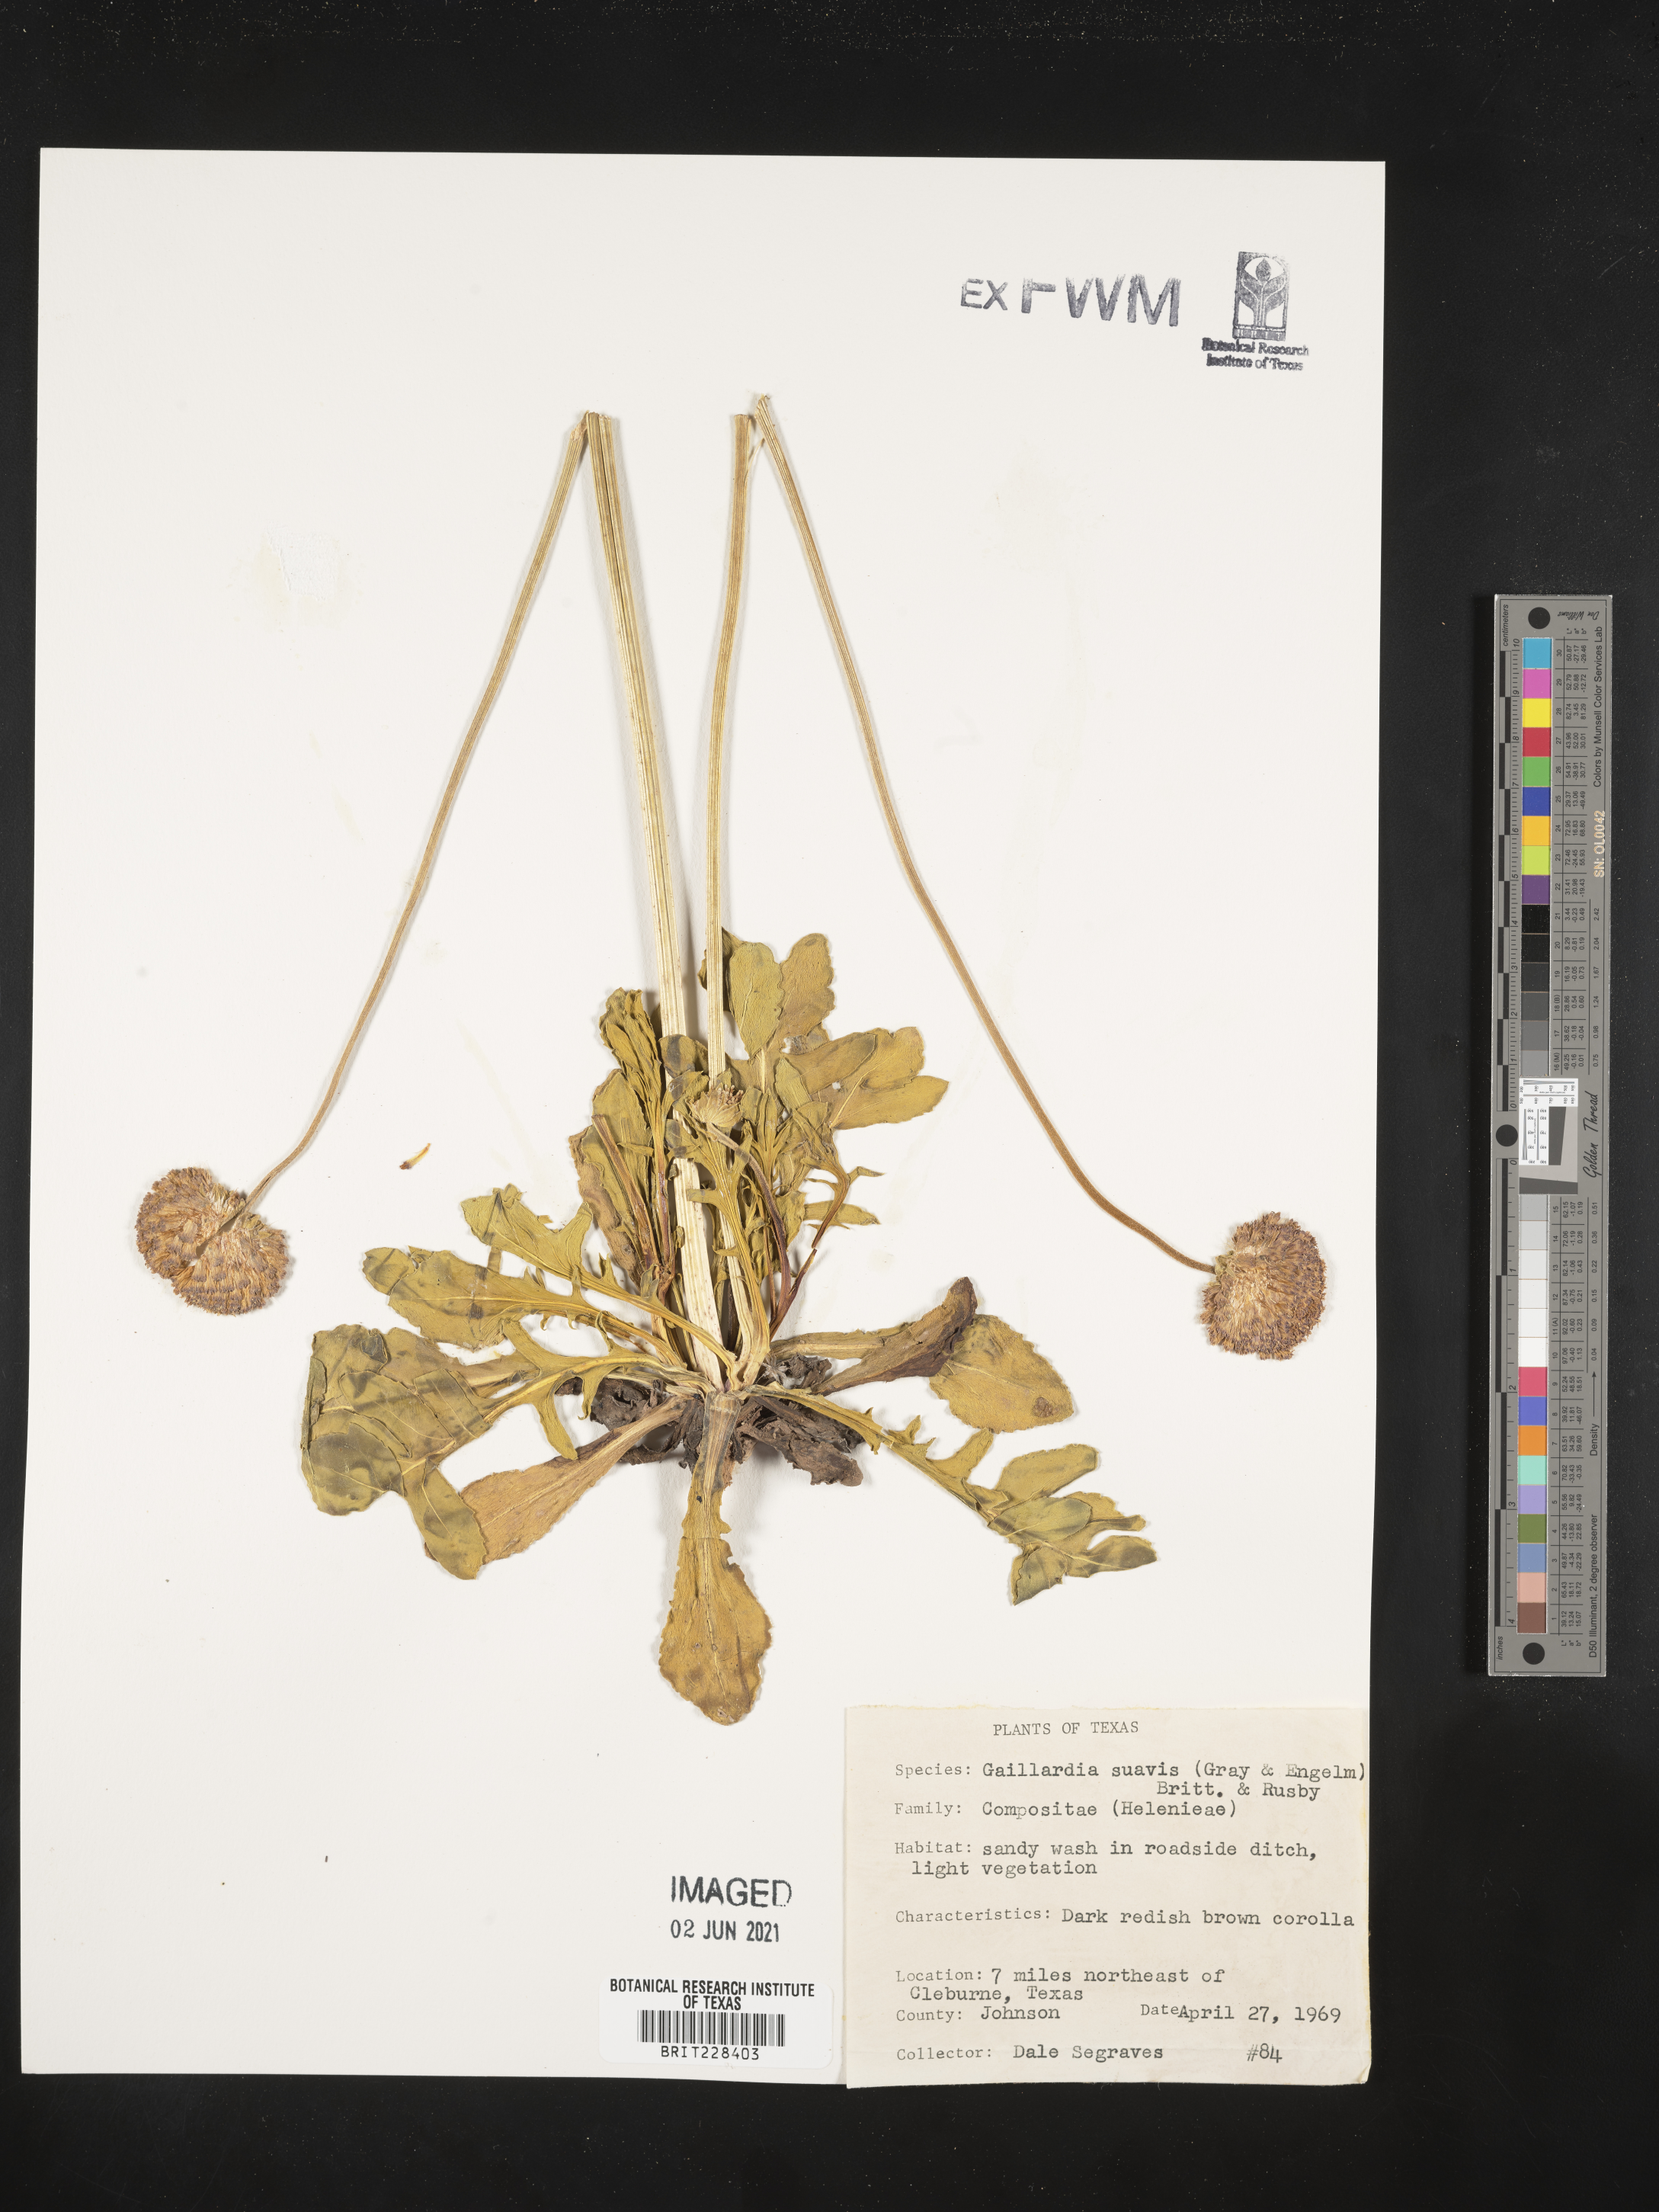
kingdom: Plantae
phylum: Tracheophyta
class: Magnoliopsida
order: Asterales
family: Asteraceae
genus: Gaillardia
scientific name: Gaillardia suavis
